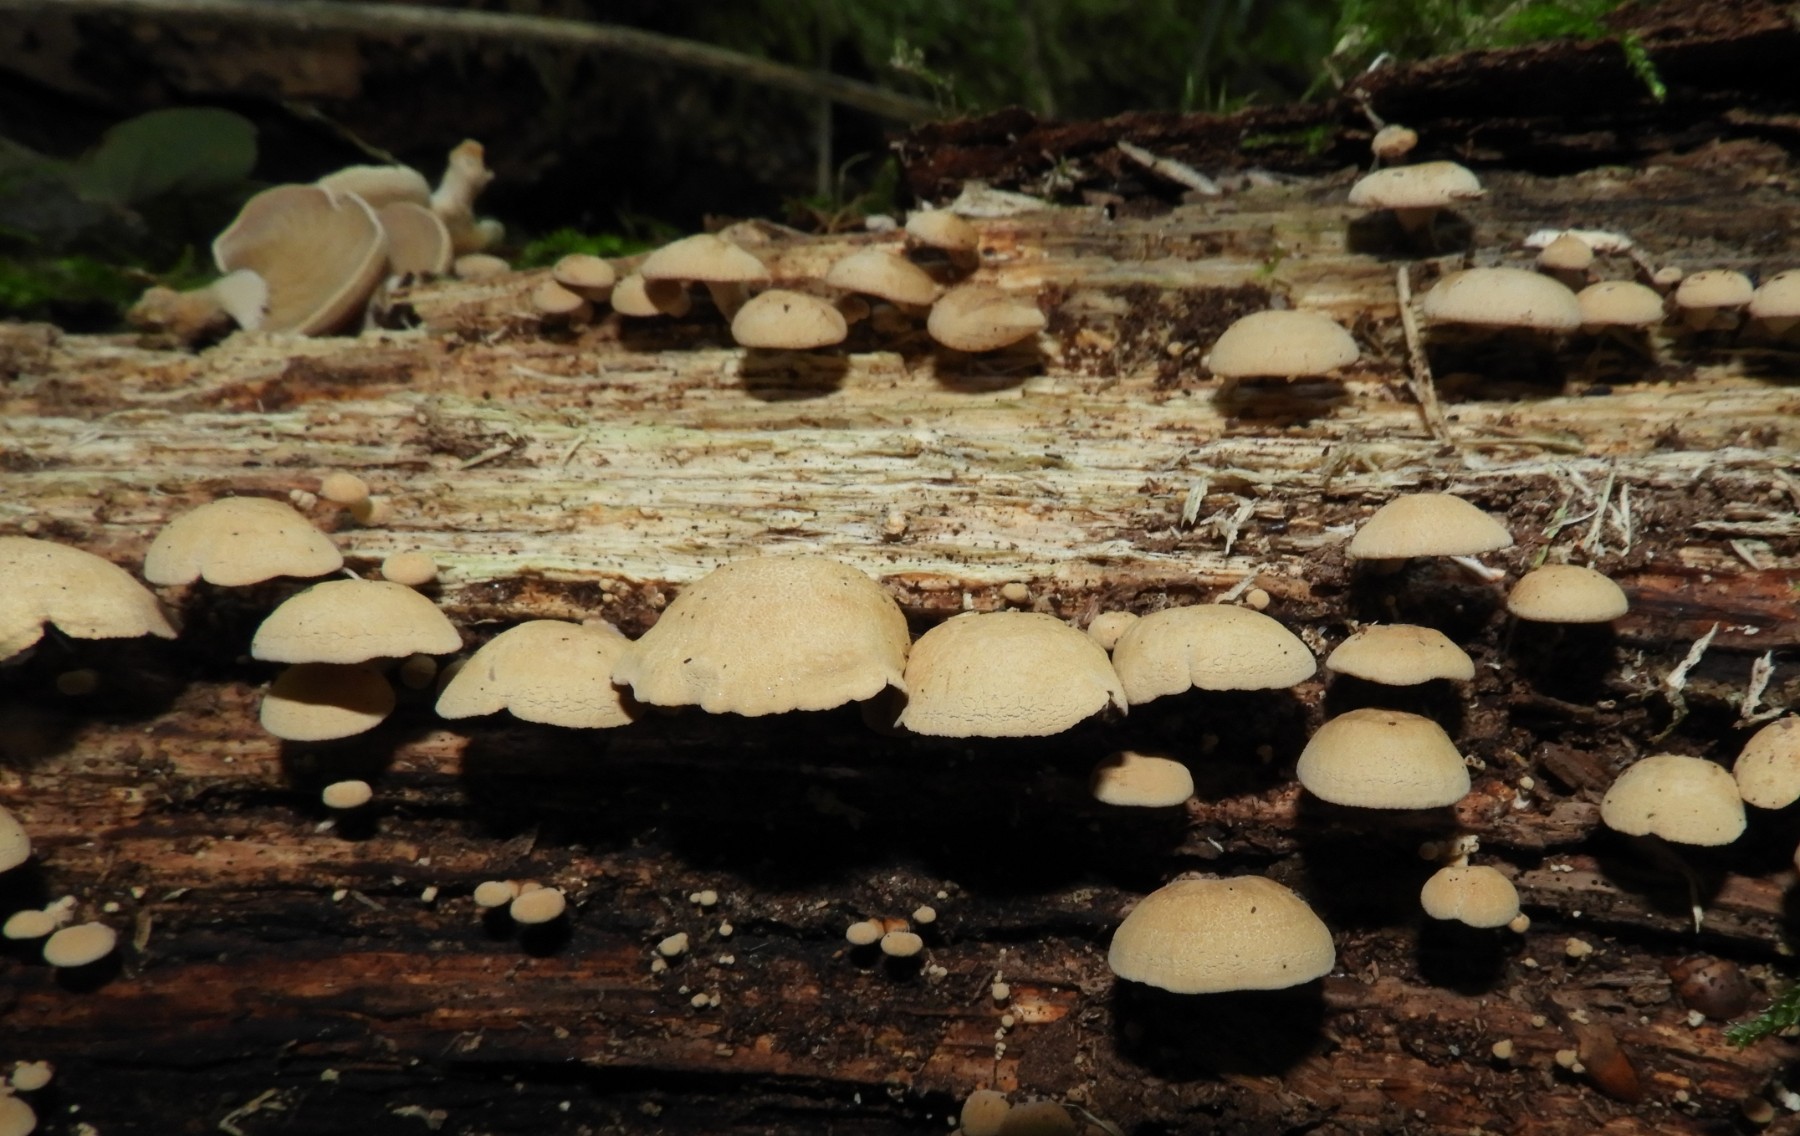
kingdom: Fungi
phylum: Basidiomycota
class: Agaricomycetes
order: Agaricales
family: Mycenaceae
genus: Panellus
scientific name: Panellus stipticus
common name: kliddet epaulethat
